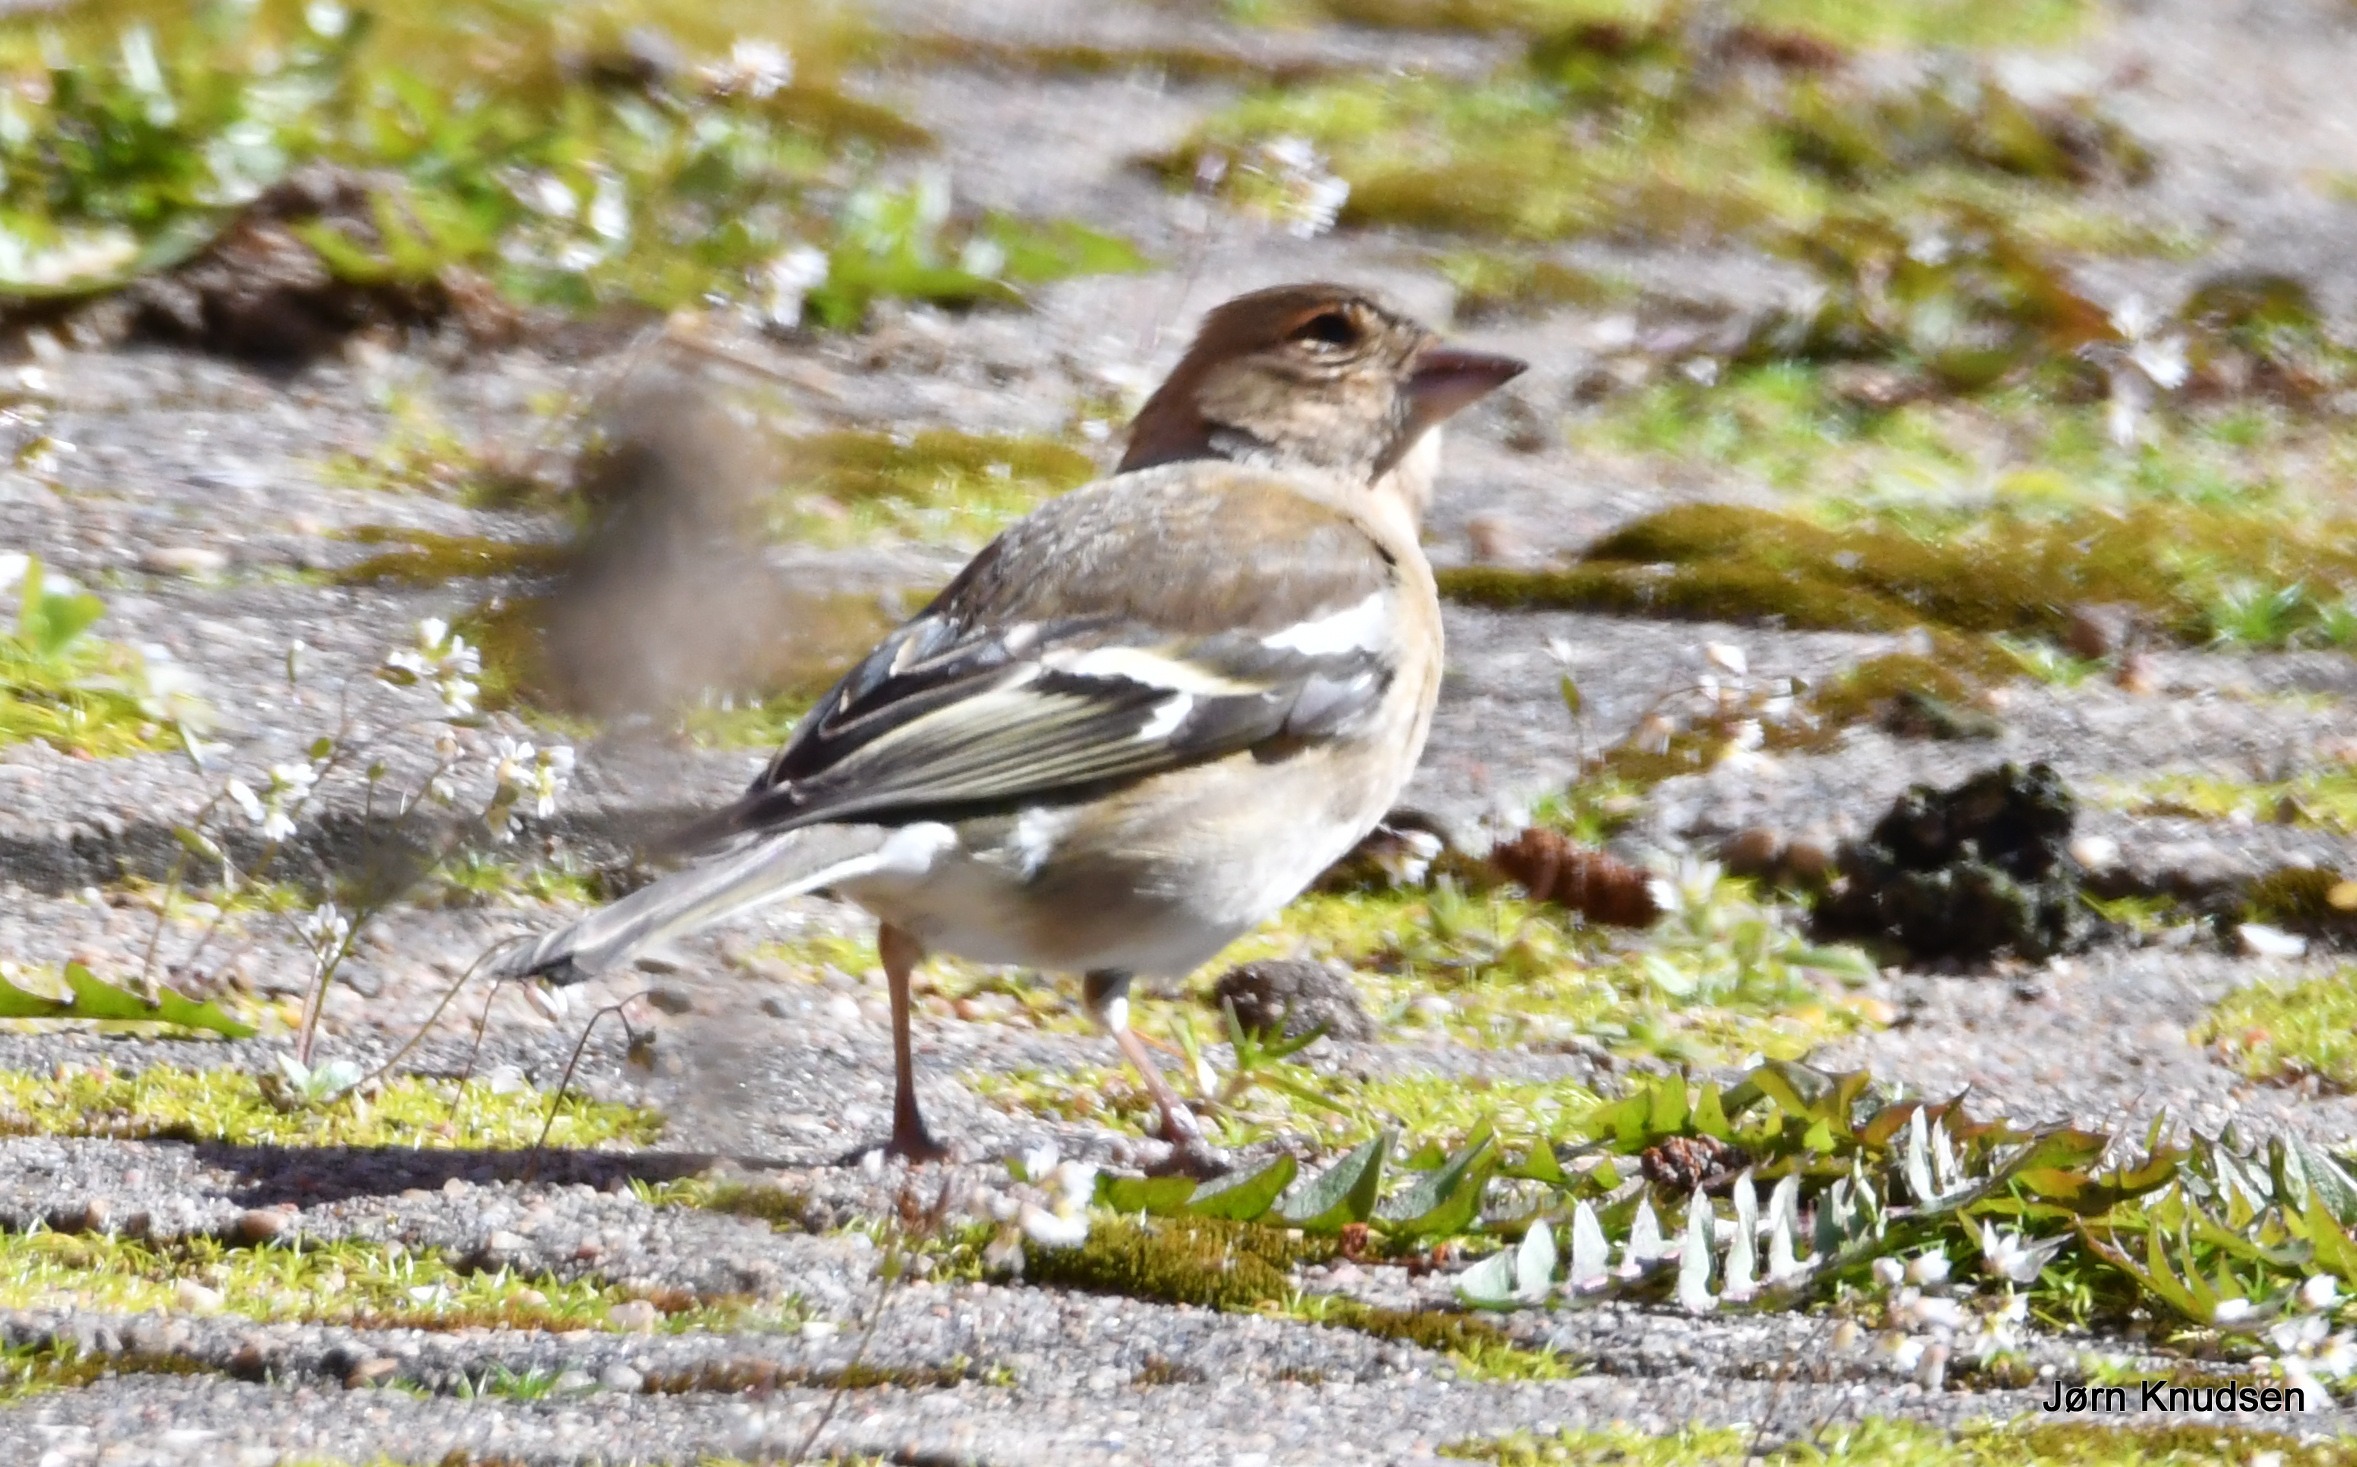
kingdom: Animalia
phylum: Chordata
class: Aves
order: Passeriformes
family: Fringillidae
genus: Fringilla
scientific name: Fringilla coelebs
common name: Bogfinke
